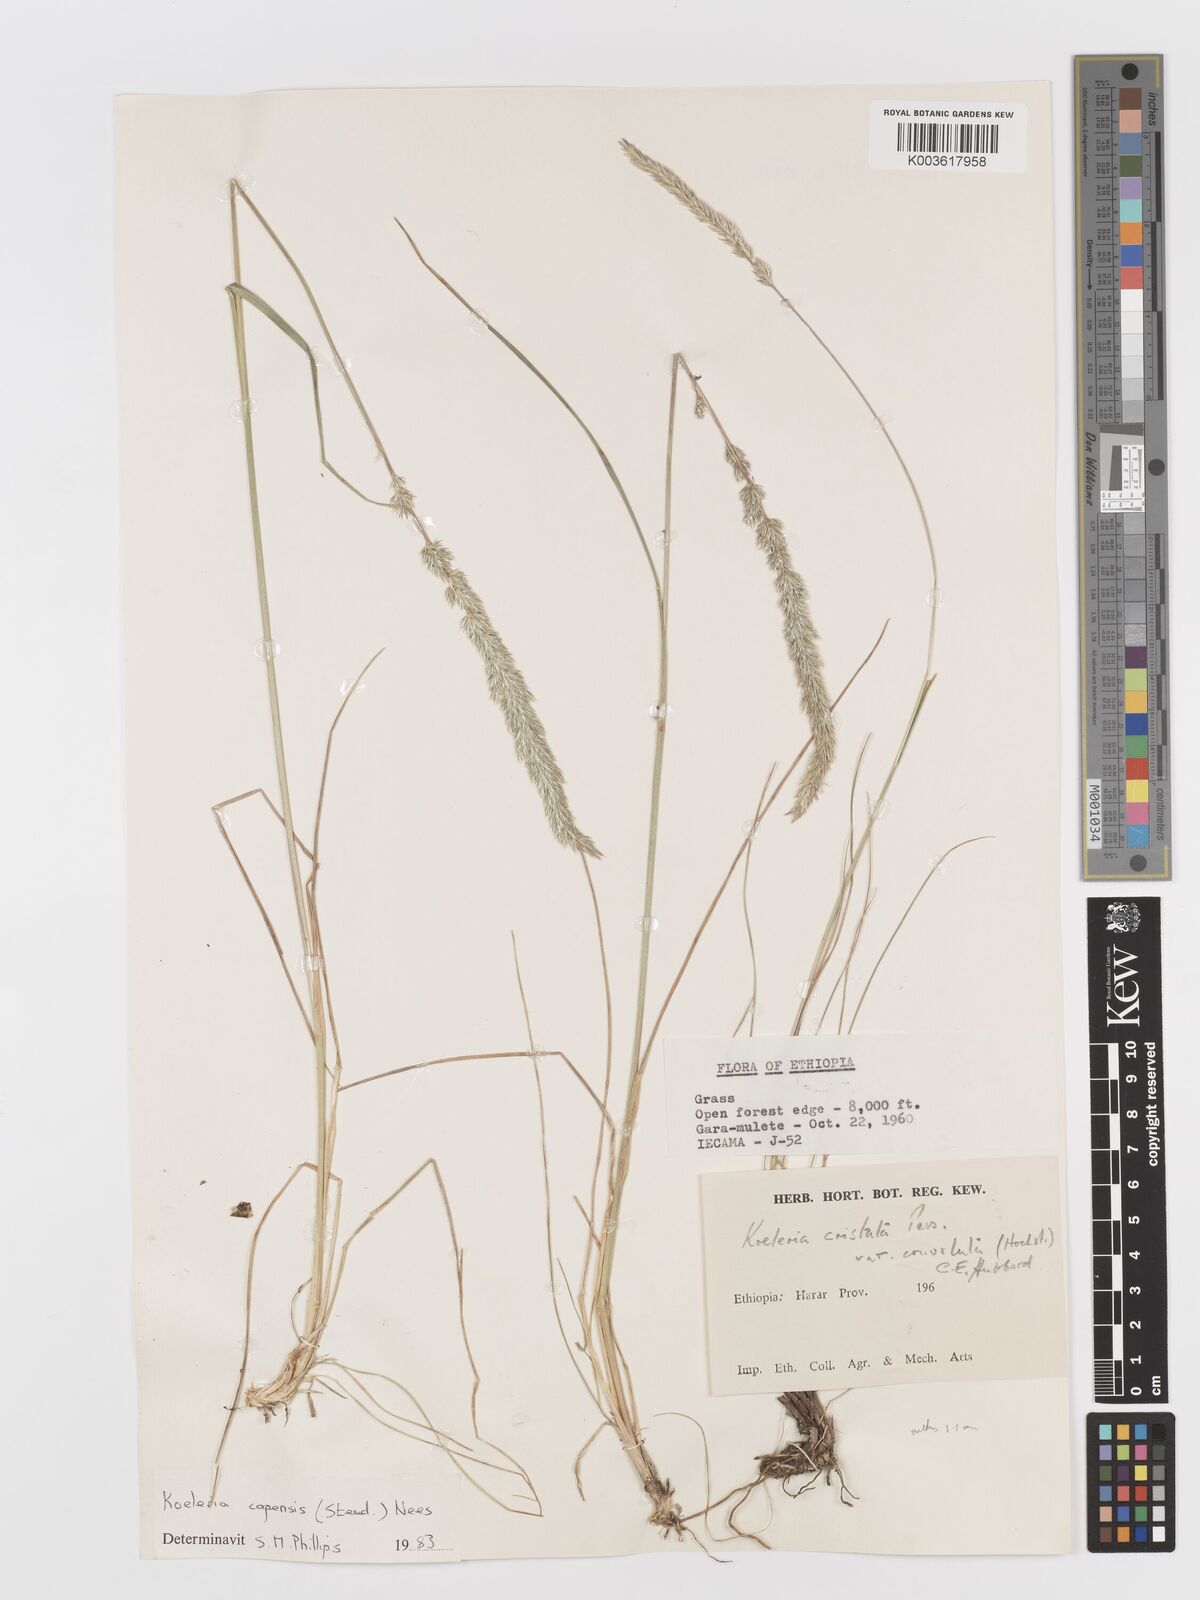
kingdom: Plantae
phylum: Tracheophyta
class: Liliopsida
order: Poales
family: Poaceae
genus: Koeleria
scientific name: Koeleria capensis
